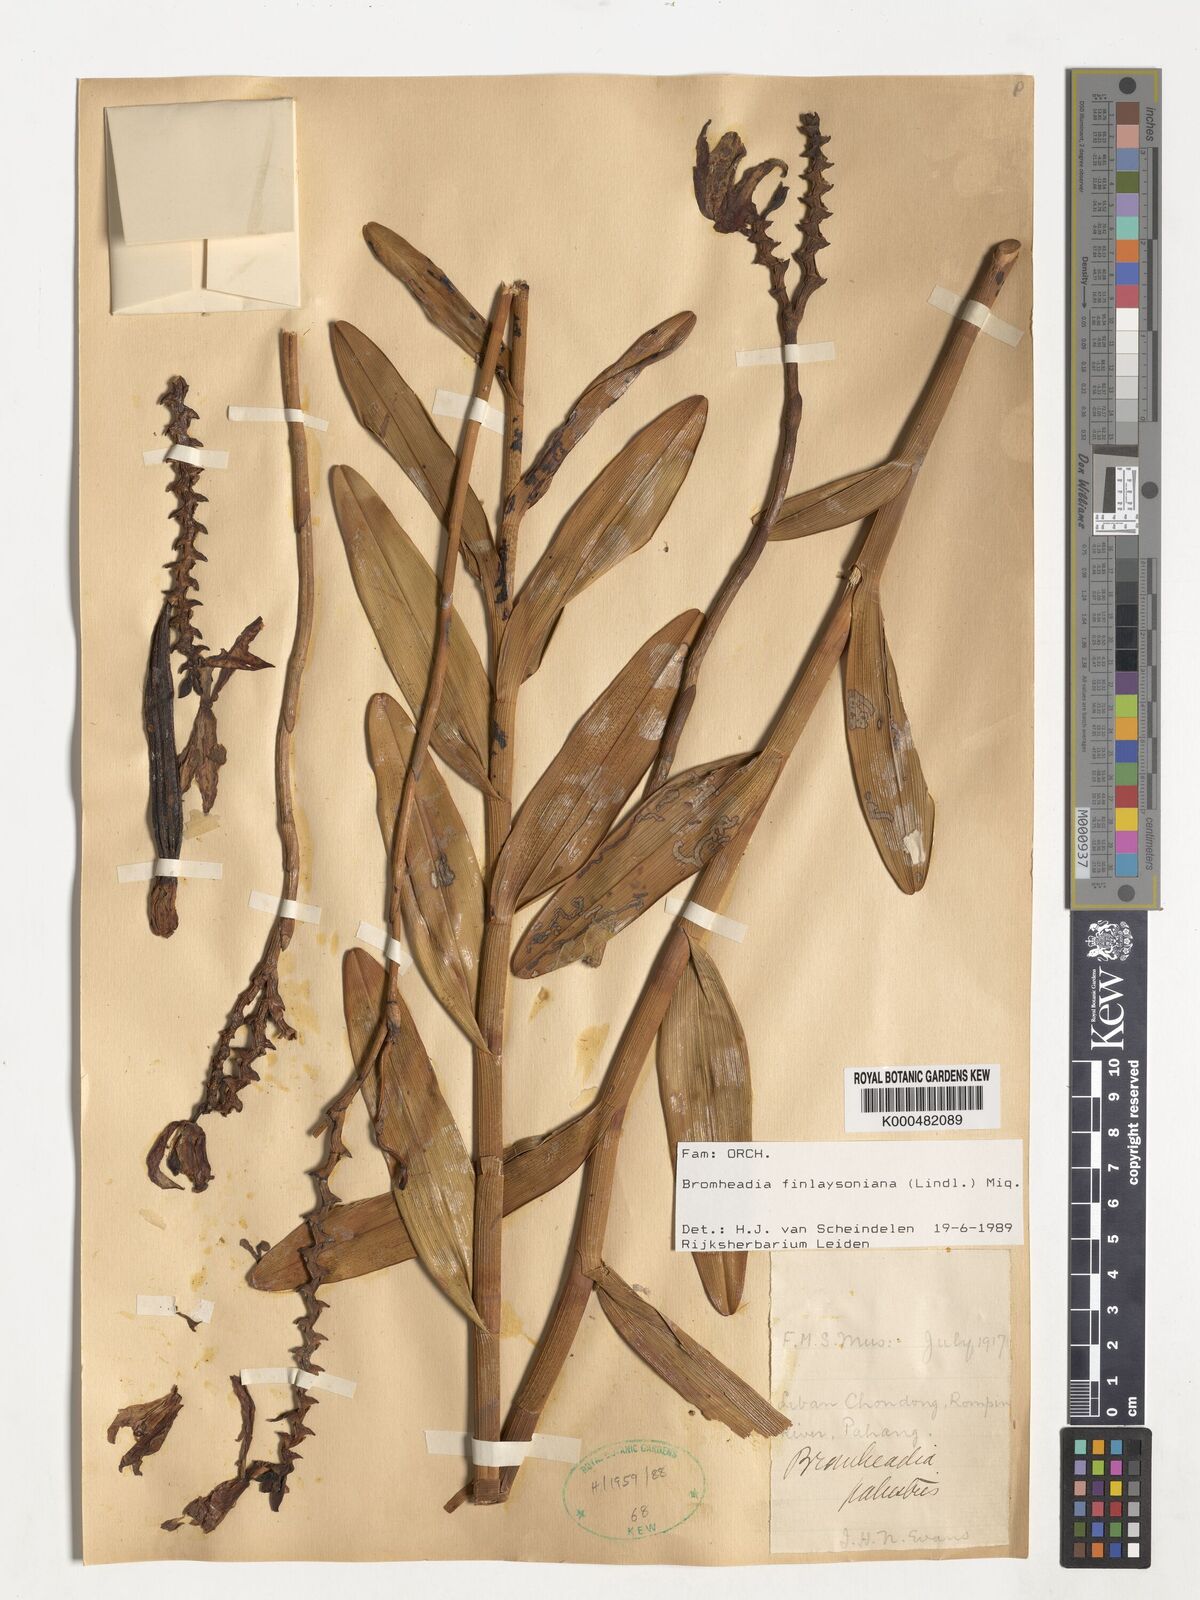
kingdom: Plantae
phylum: Tracheophyta
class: Liliopsida
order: Asparagales
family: Orchidaceae
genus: Bromheadia
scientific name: Bromheadia finlaysoniana
